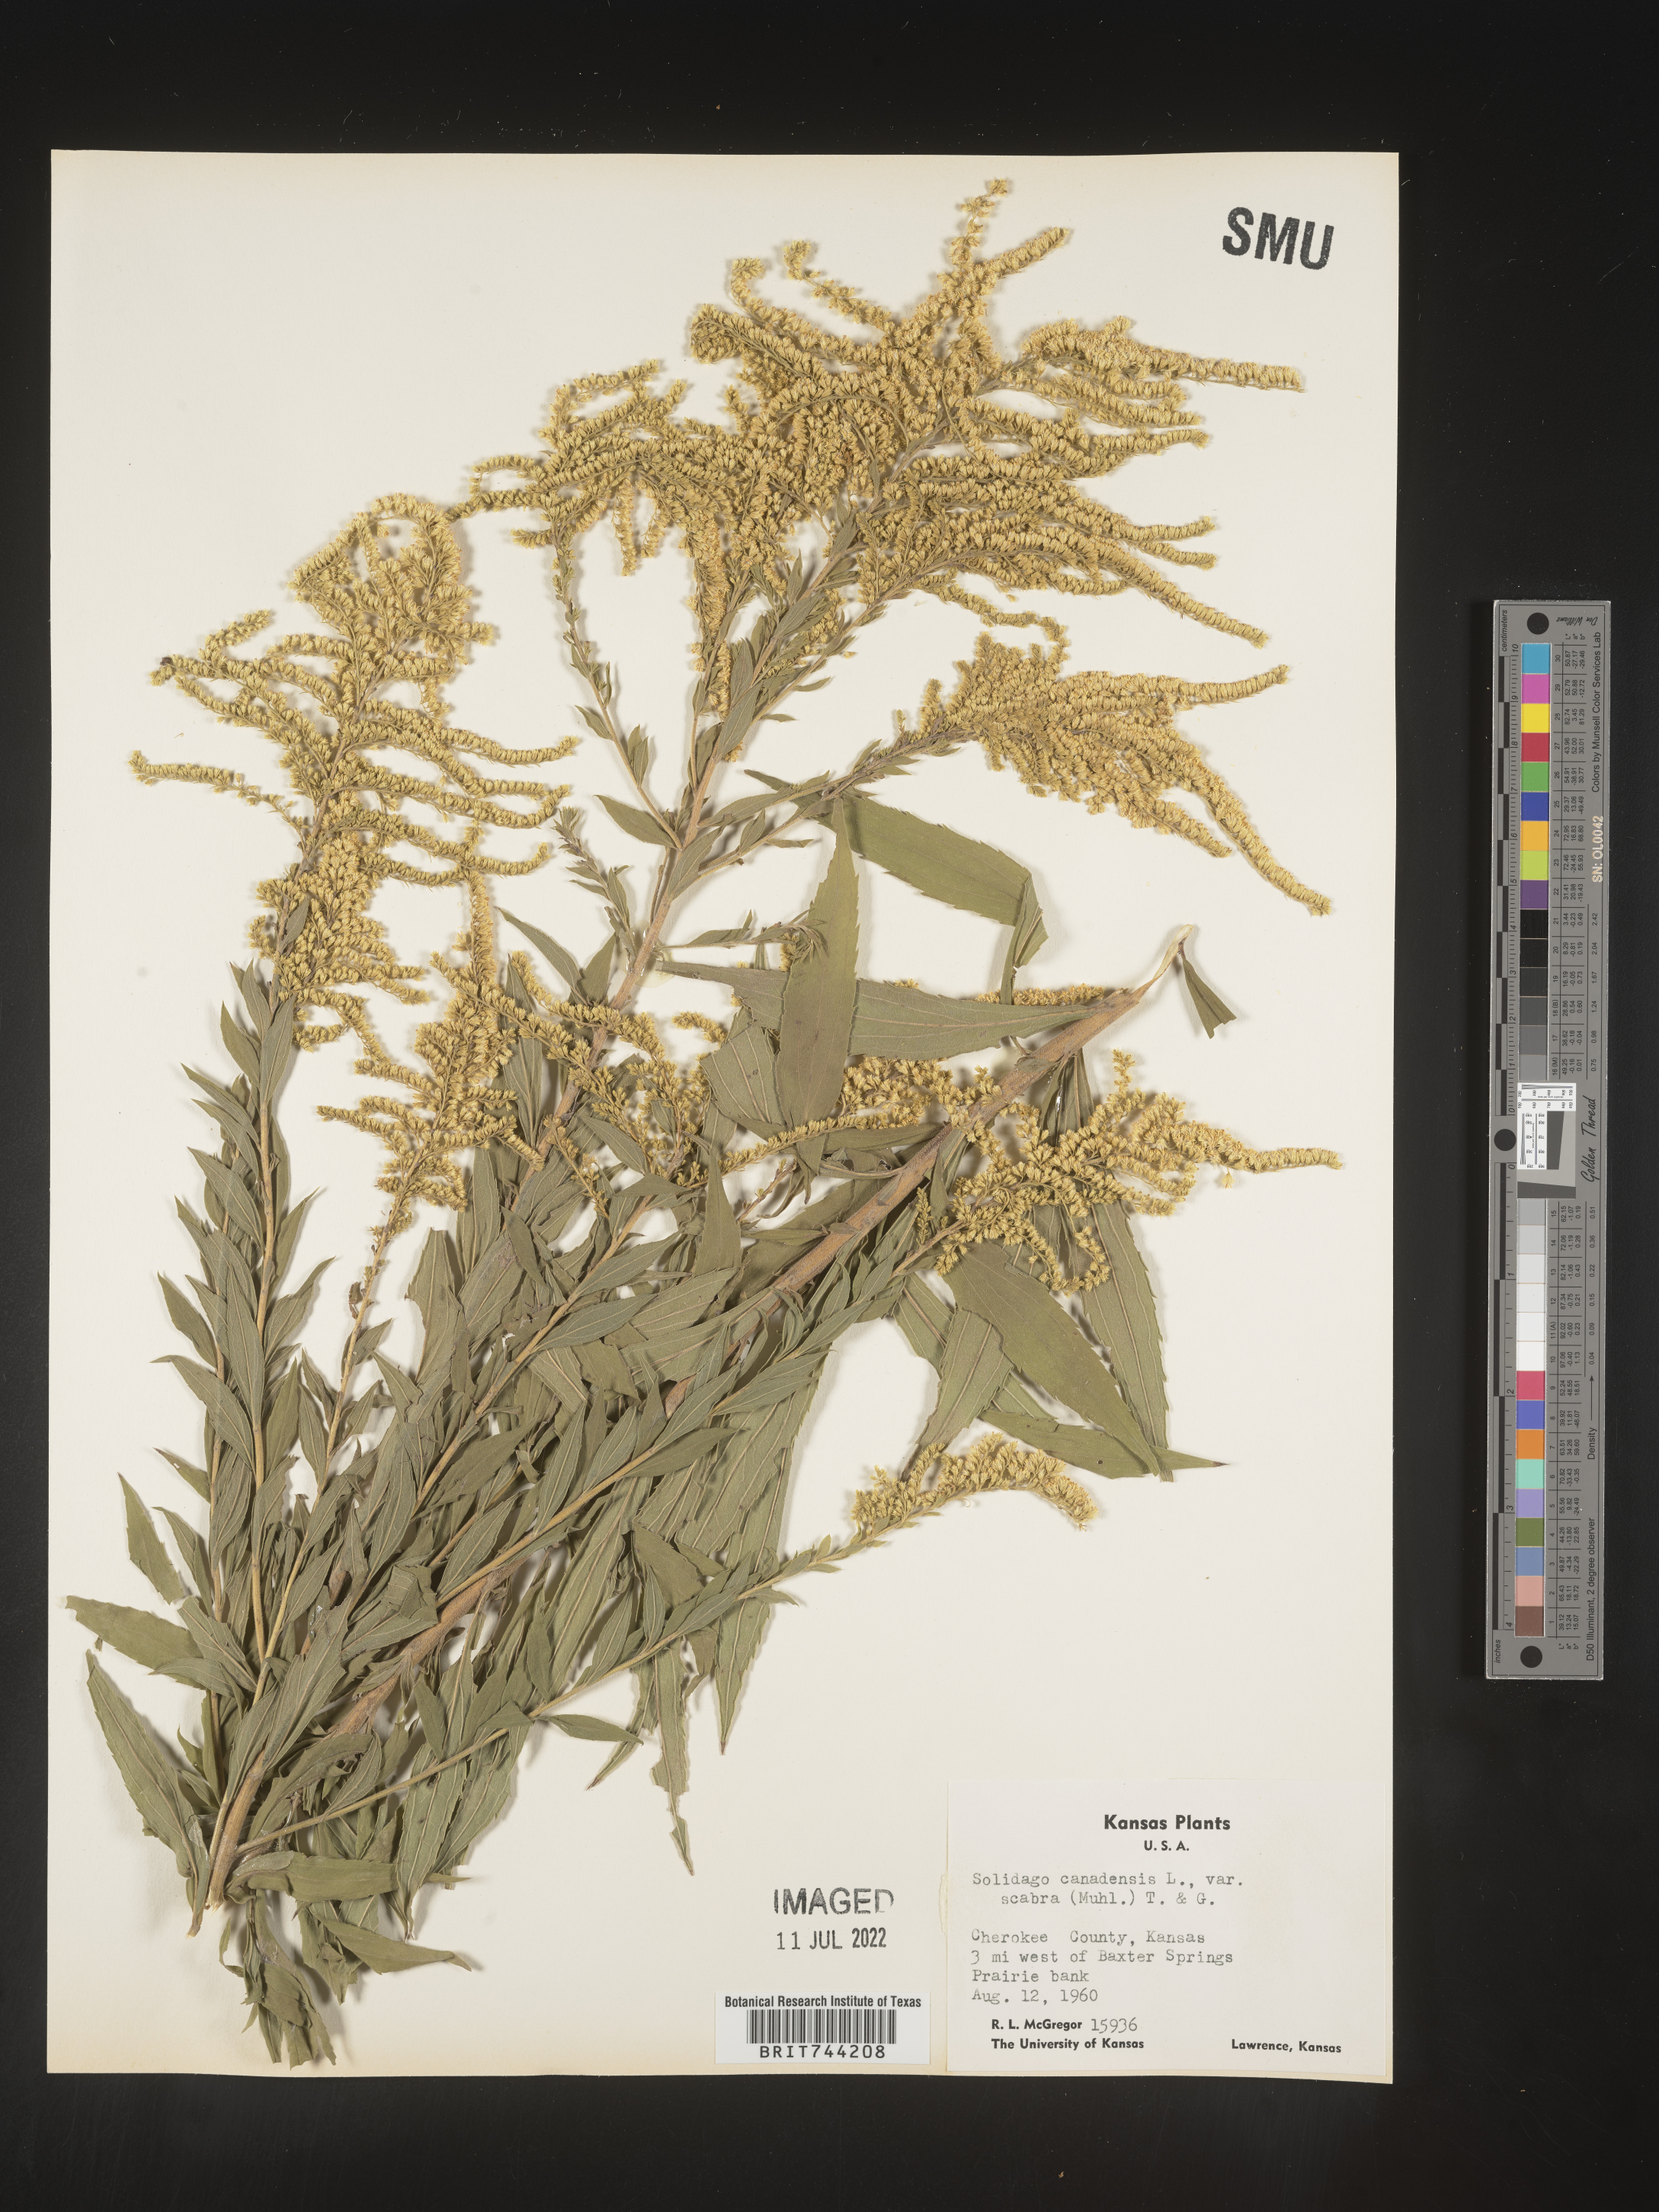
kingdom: Plantae
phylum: Tracheophyta
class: Magnoliopsida
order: Asterales
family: Asteraceae
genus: Solidago
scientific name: Solidago altissima
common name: Late goldenrod
